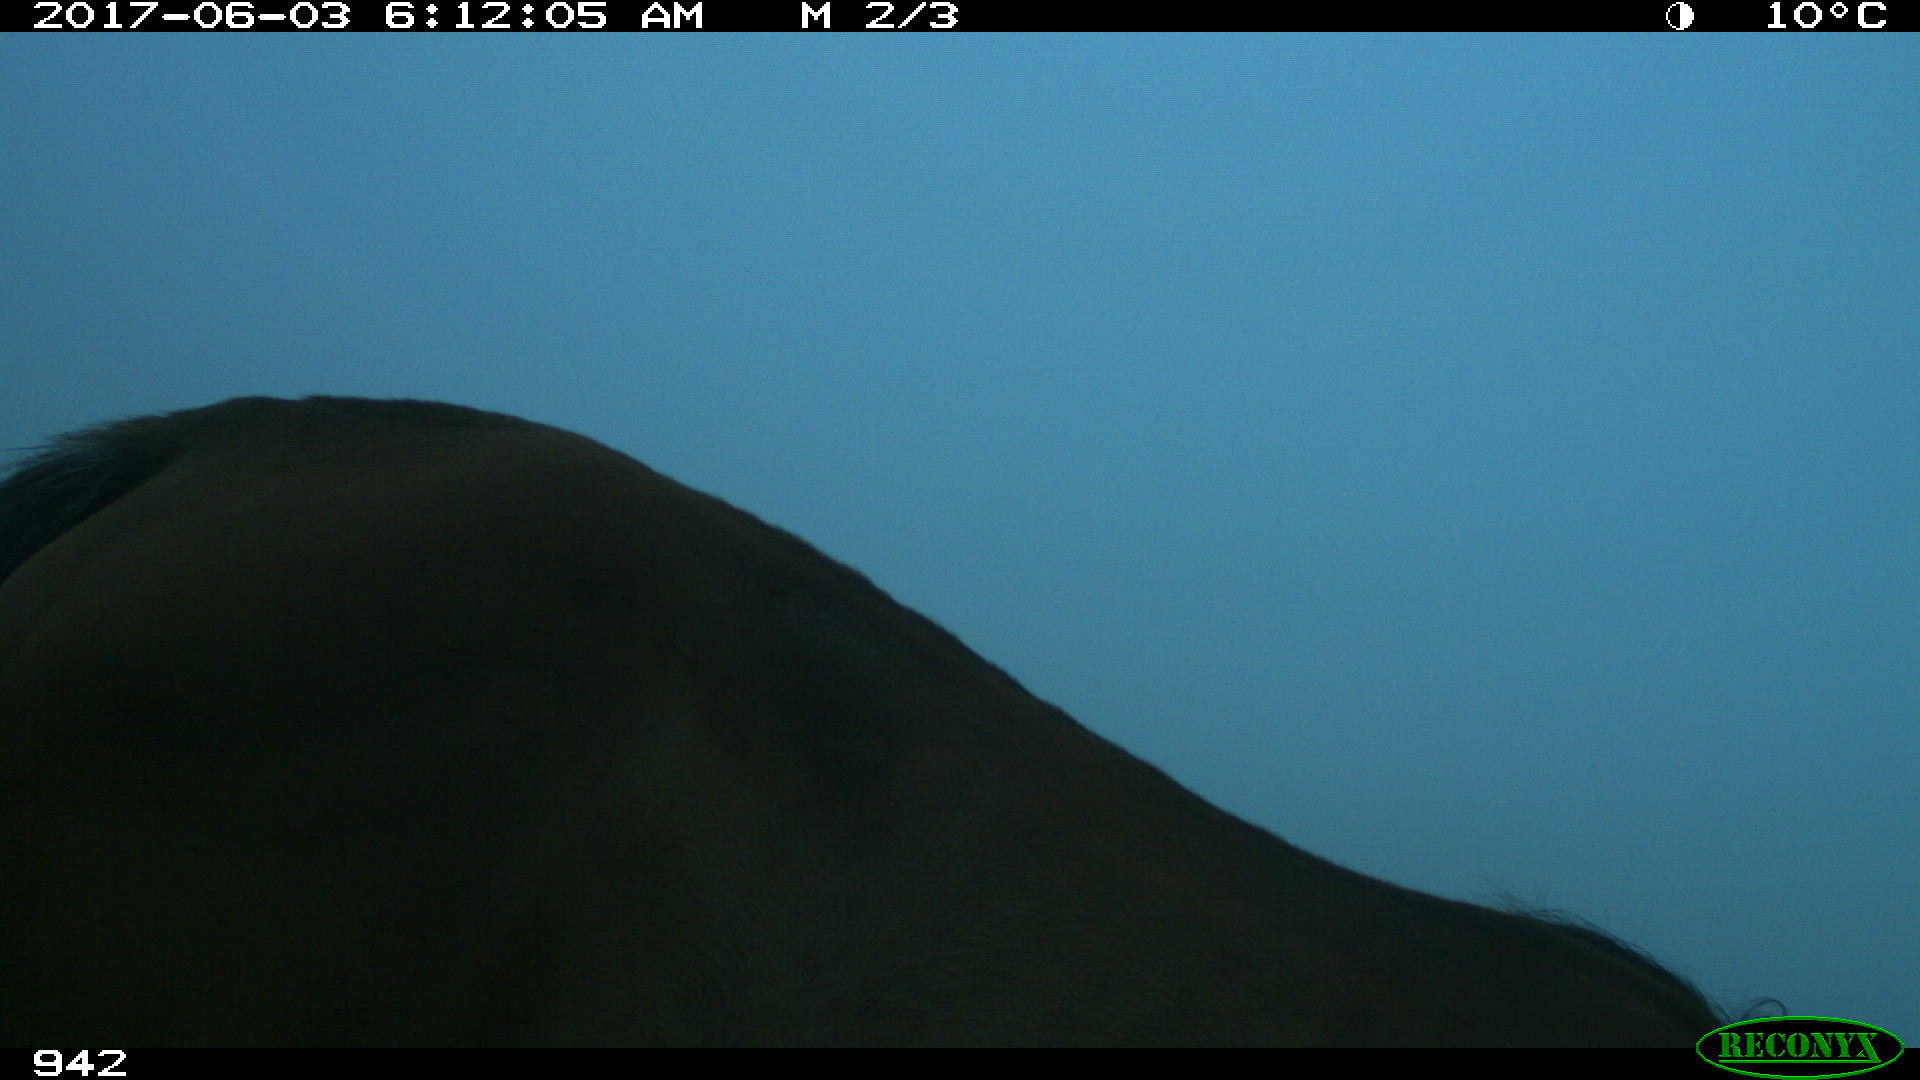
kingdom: Animalia
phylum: Chordata
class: Mammalia
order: Perissodactyla
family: Equidae
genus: Equus
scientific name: Equus caballus
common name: Horse
